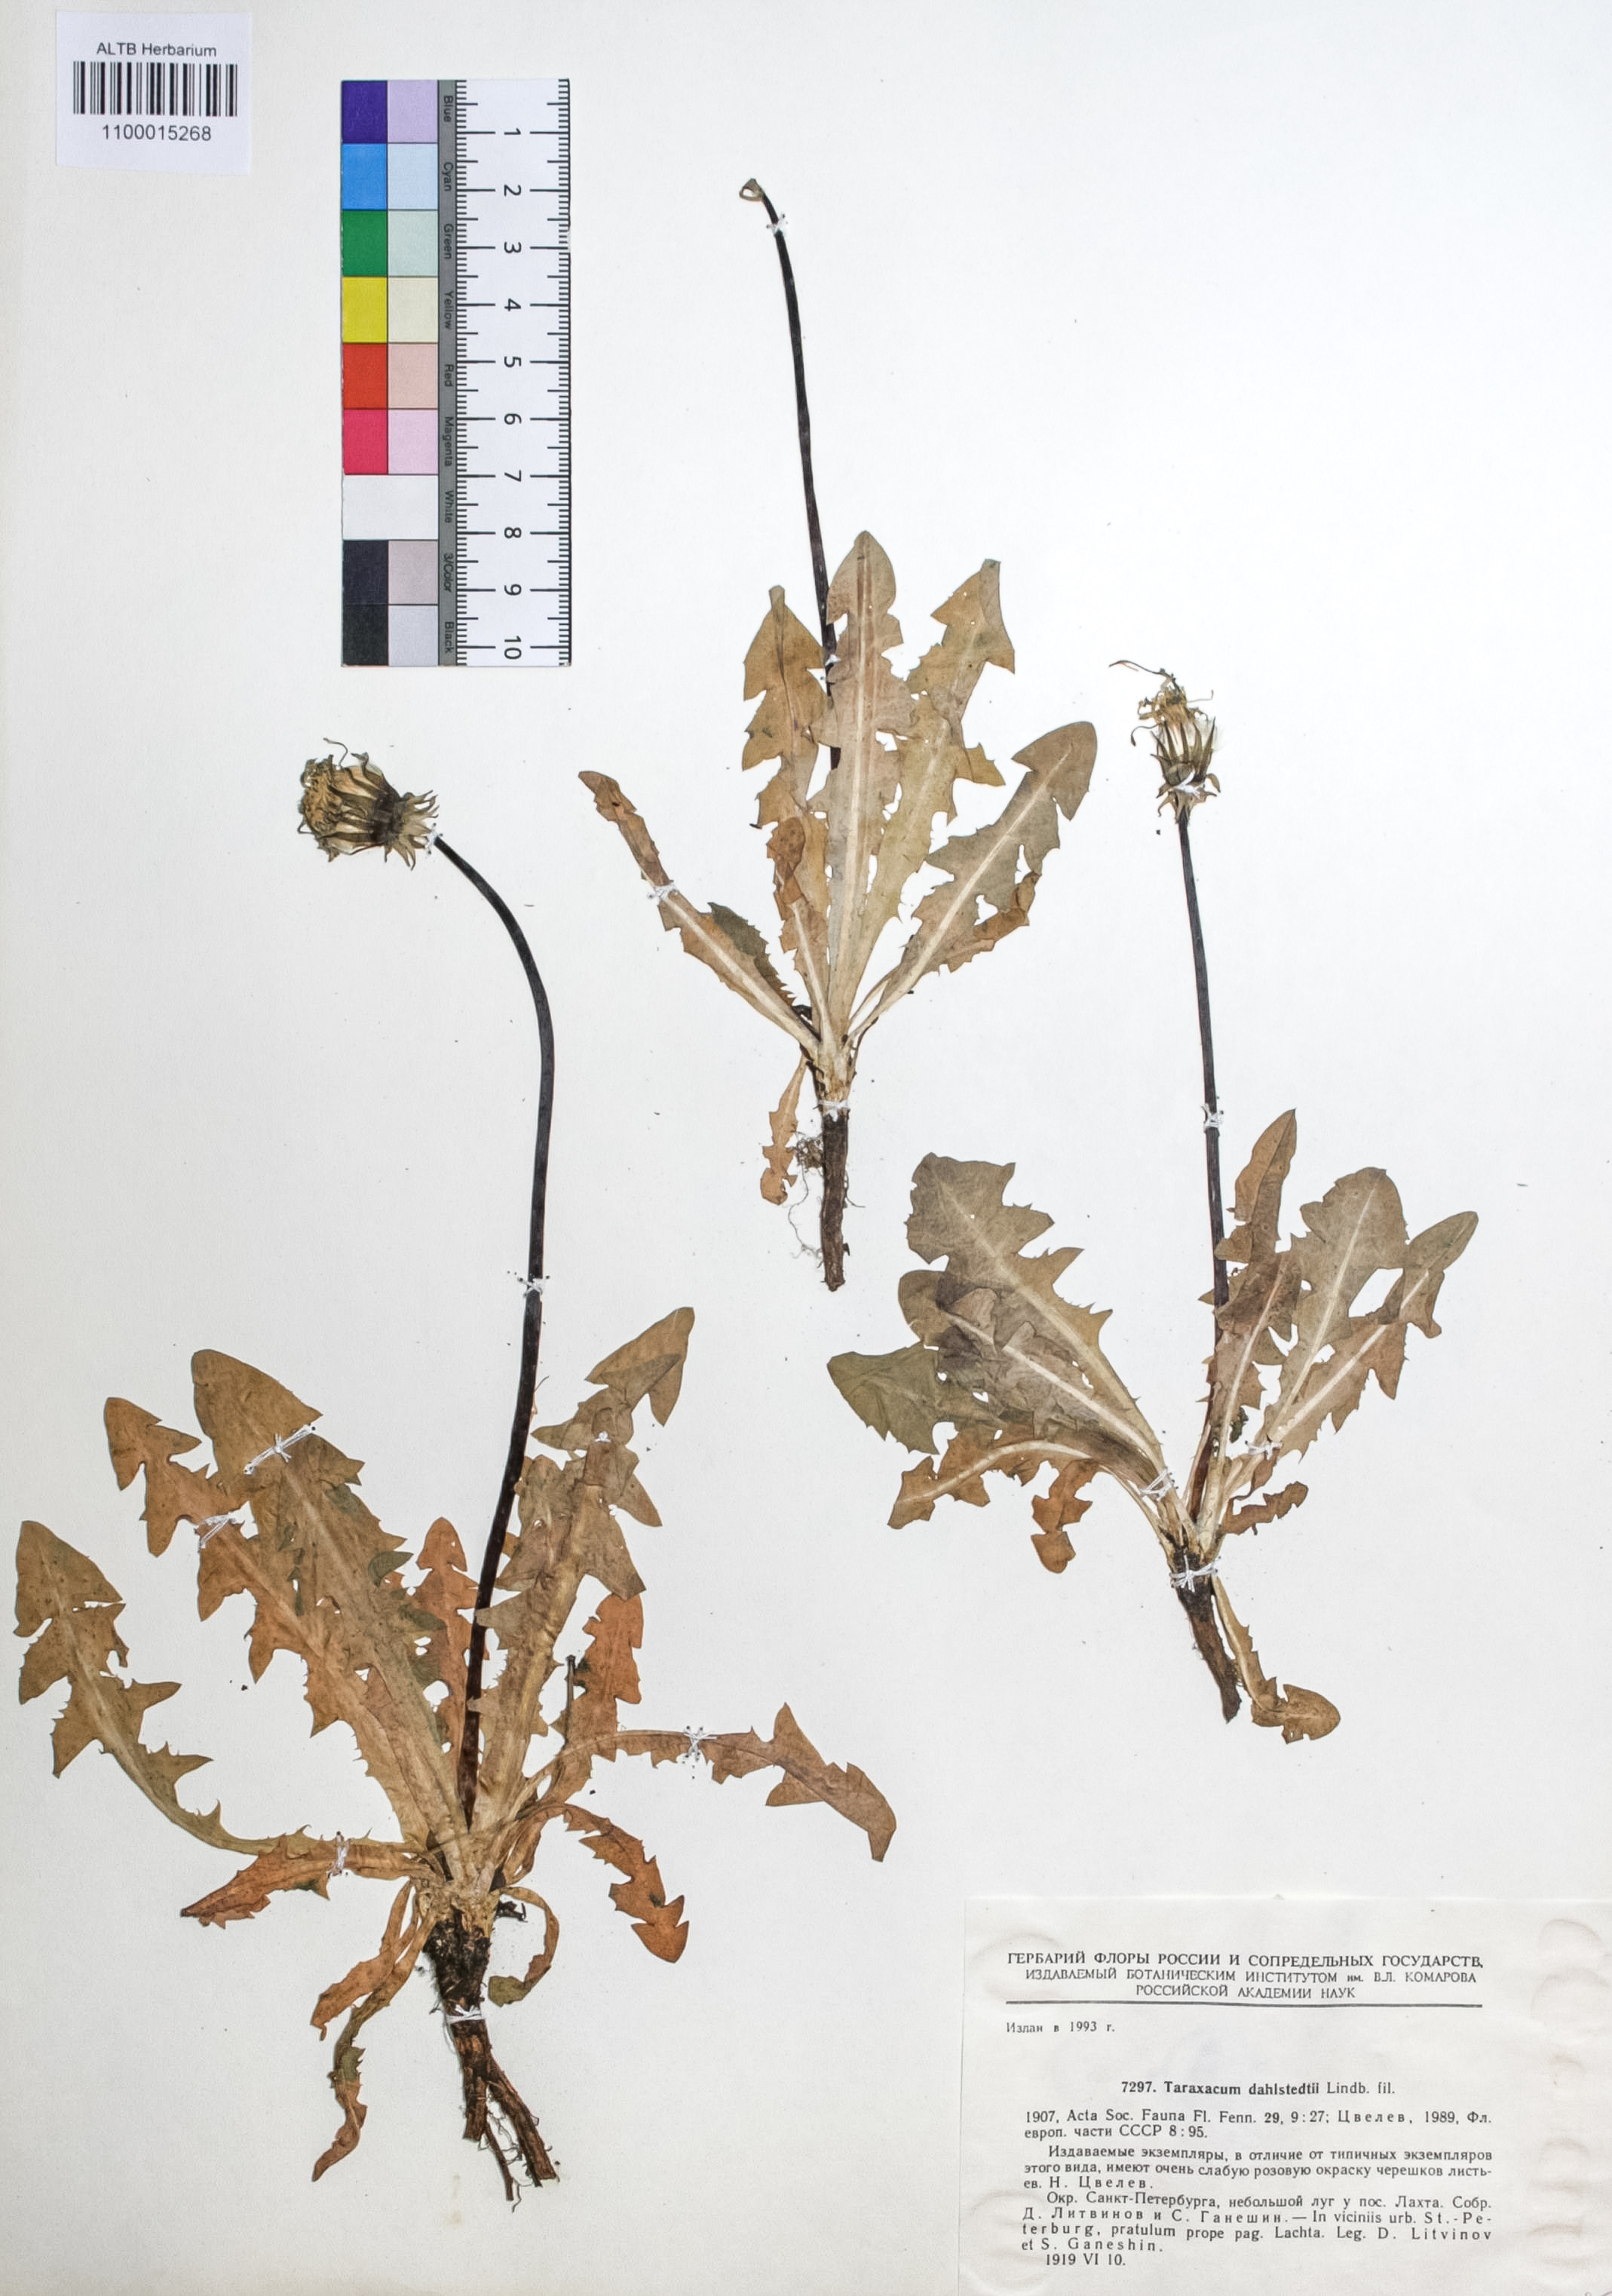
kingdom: Plantae
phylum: Tracheophyta
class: Magnoliopsida
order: Asterales
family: Asteraceae
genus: Taraxacum
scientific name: Taraxacum stenoglossum
